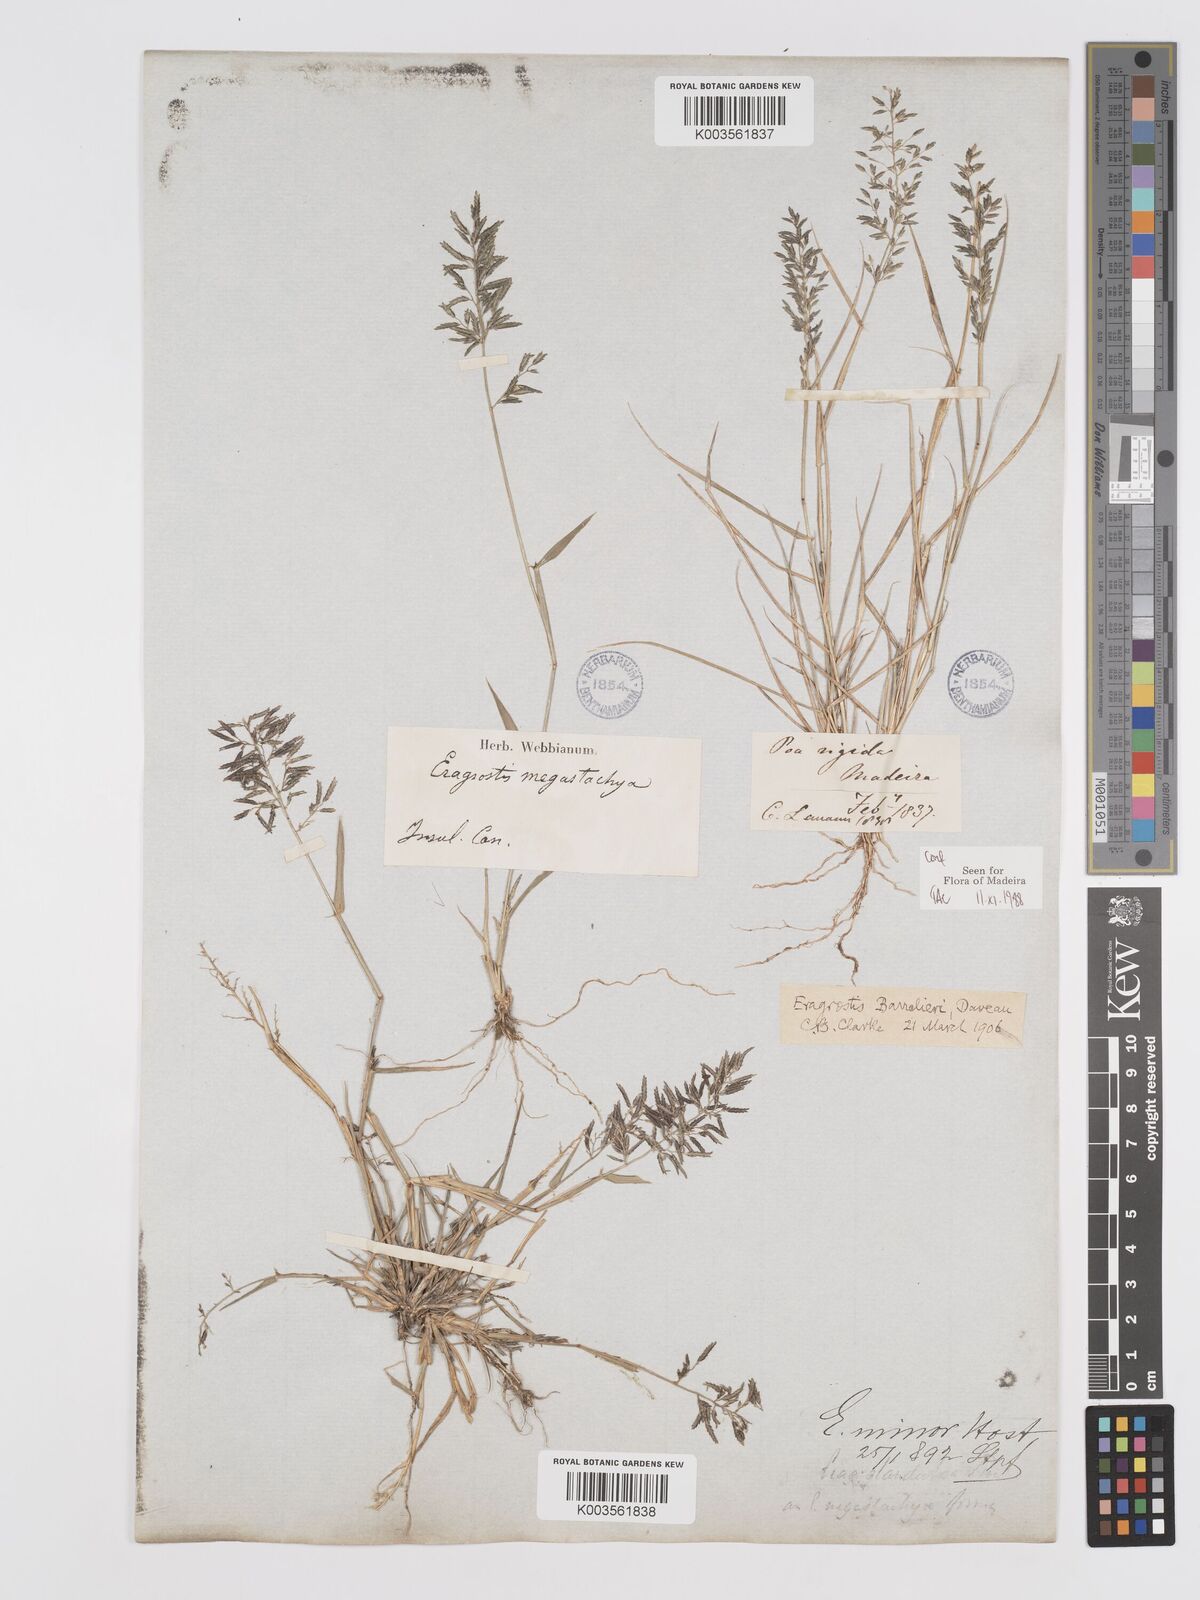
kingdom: Plantae
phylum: Tracheophyta
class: Liliopsida
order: Poales
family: Poaceae
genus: Eragrostis
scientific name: Eragrostis barrelieri
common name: Mediterranean lovegrass
